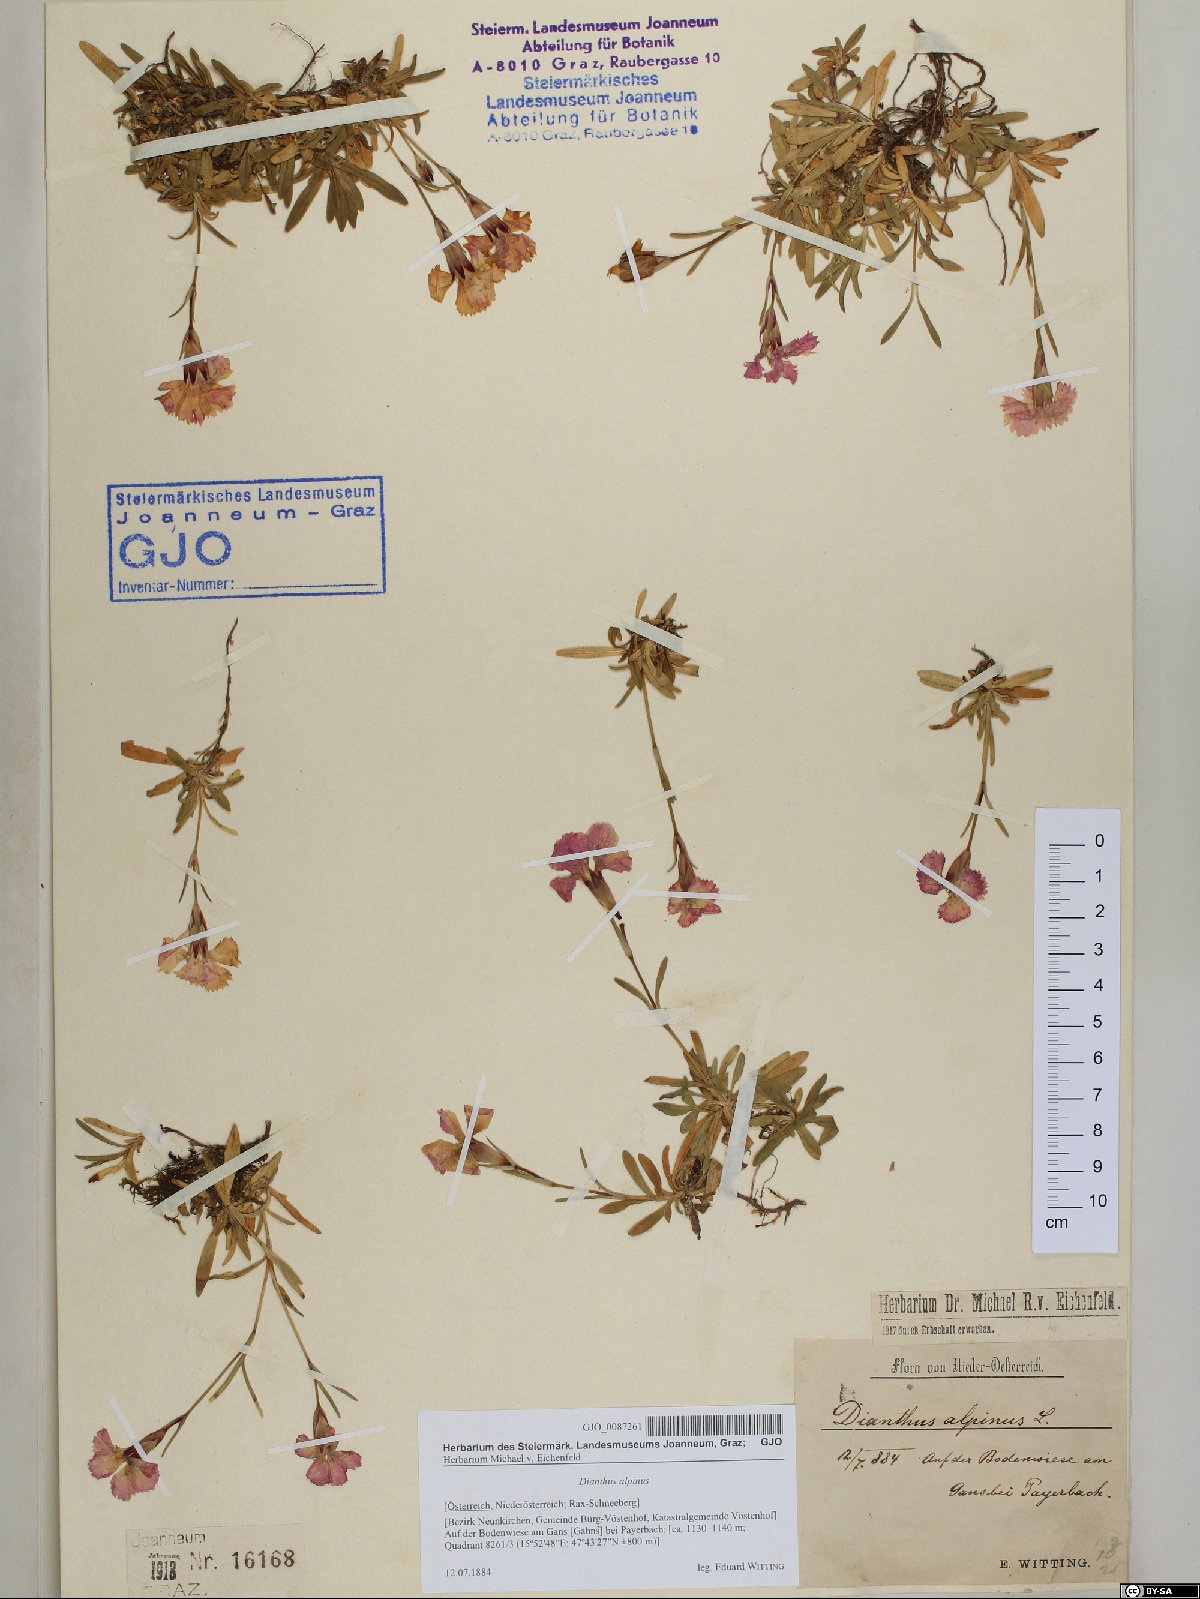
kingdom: Plantae
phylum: Tracheophyta
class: Magnoliopsida
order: Caryophyllales
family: Caryophyllaceae
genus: Dianthus
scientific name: Dianthus alpinus
